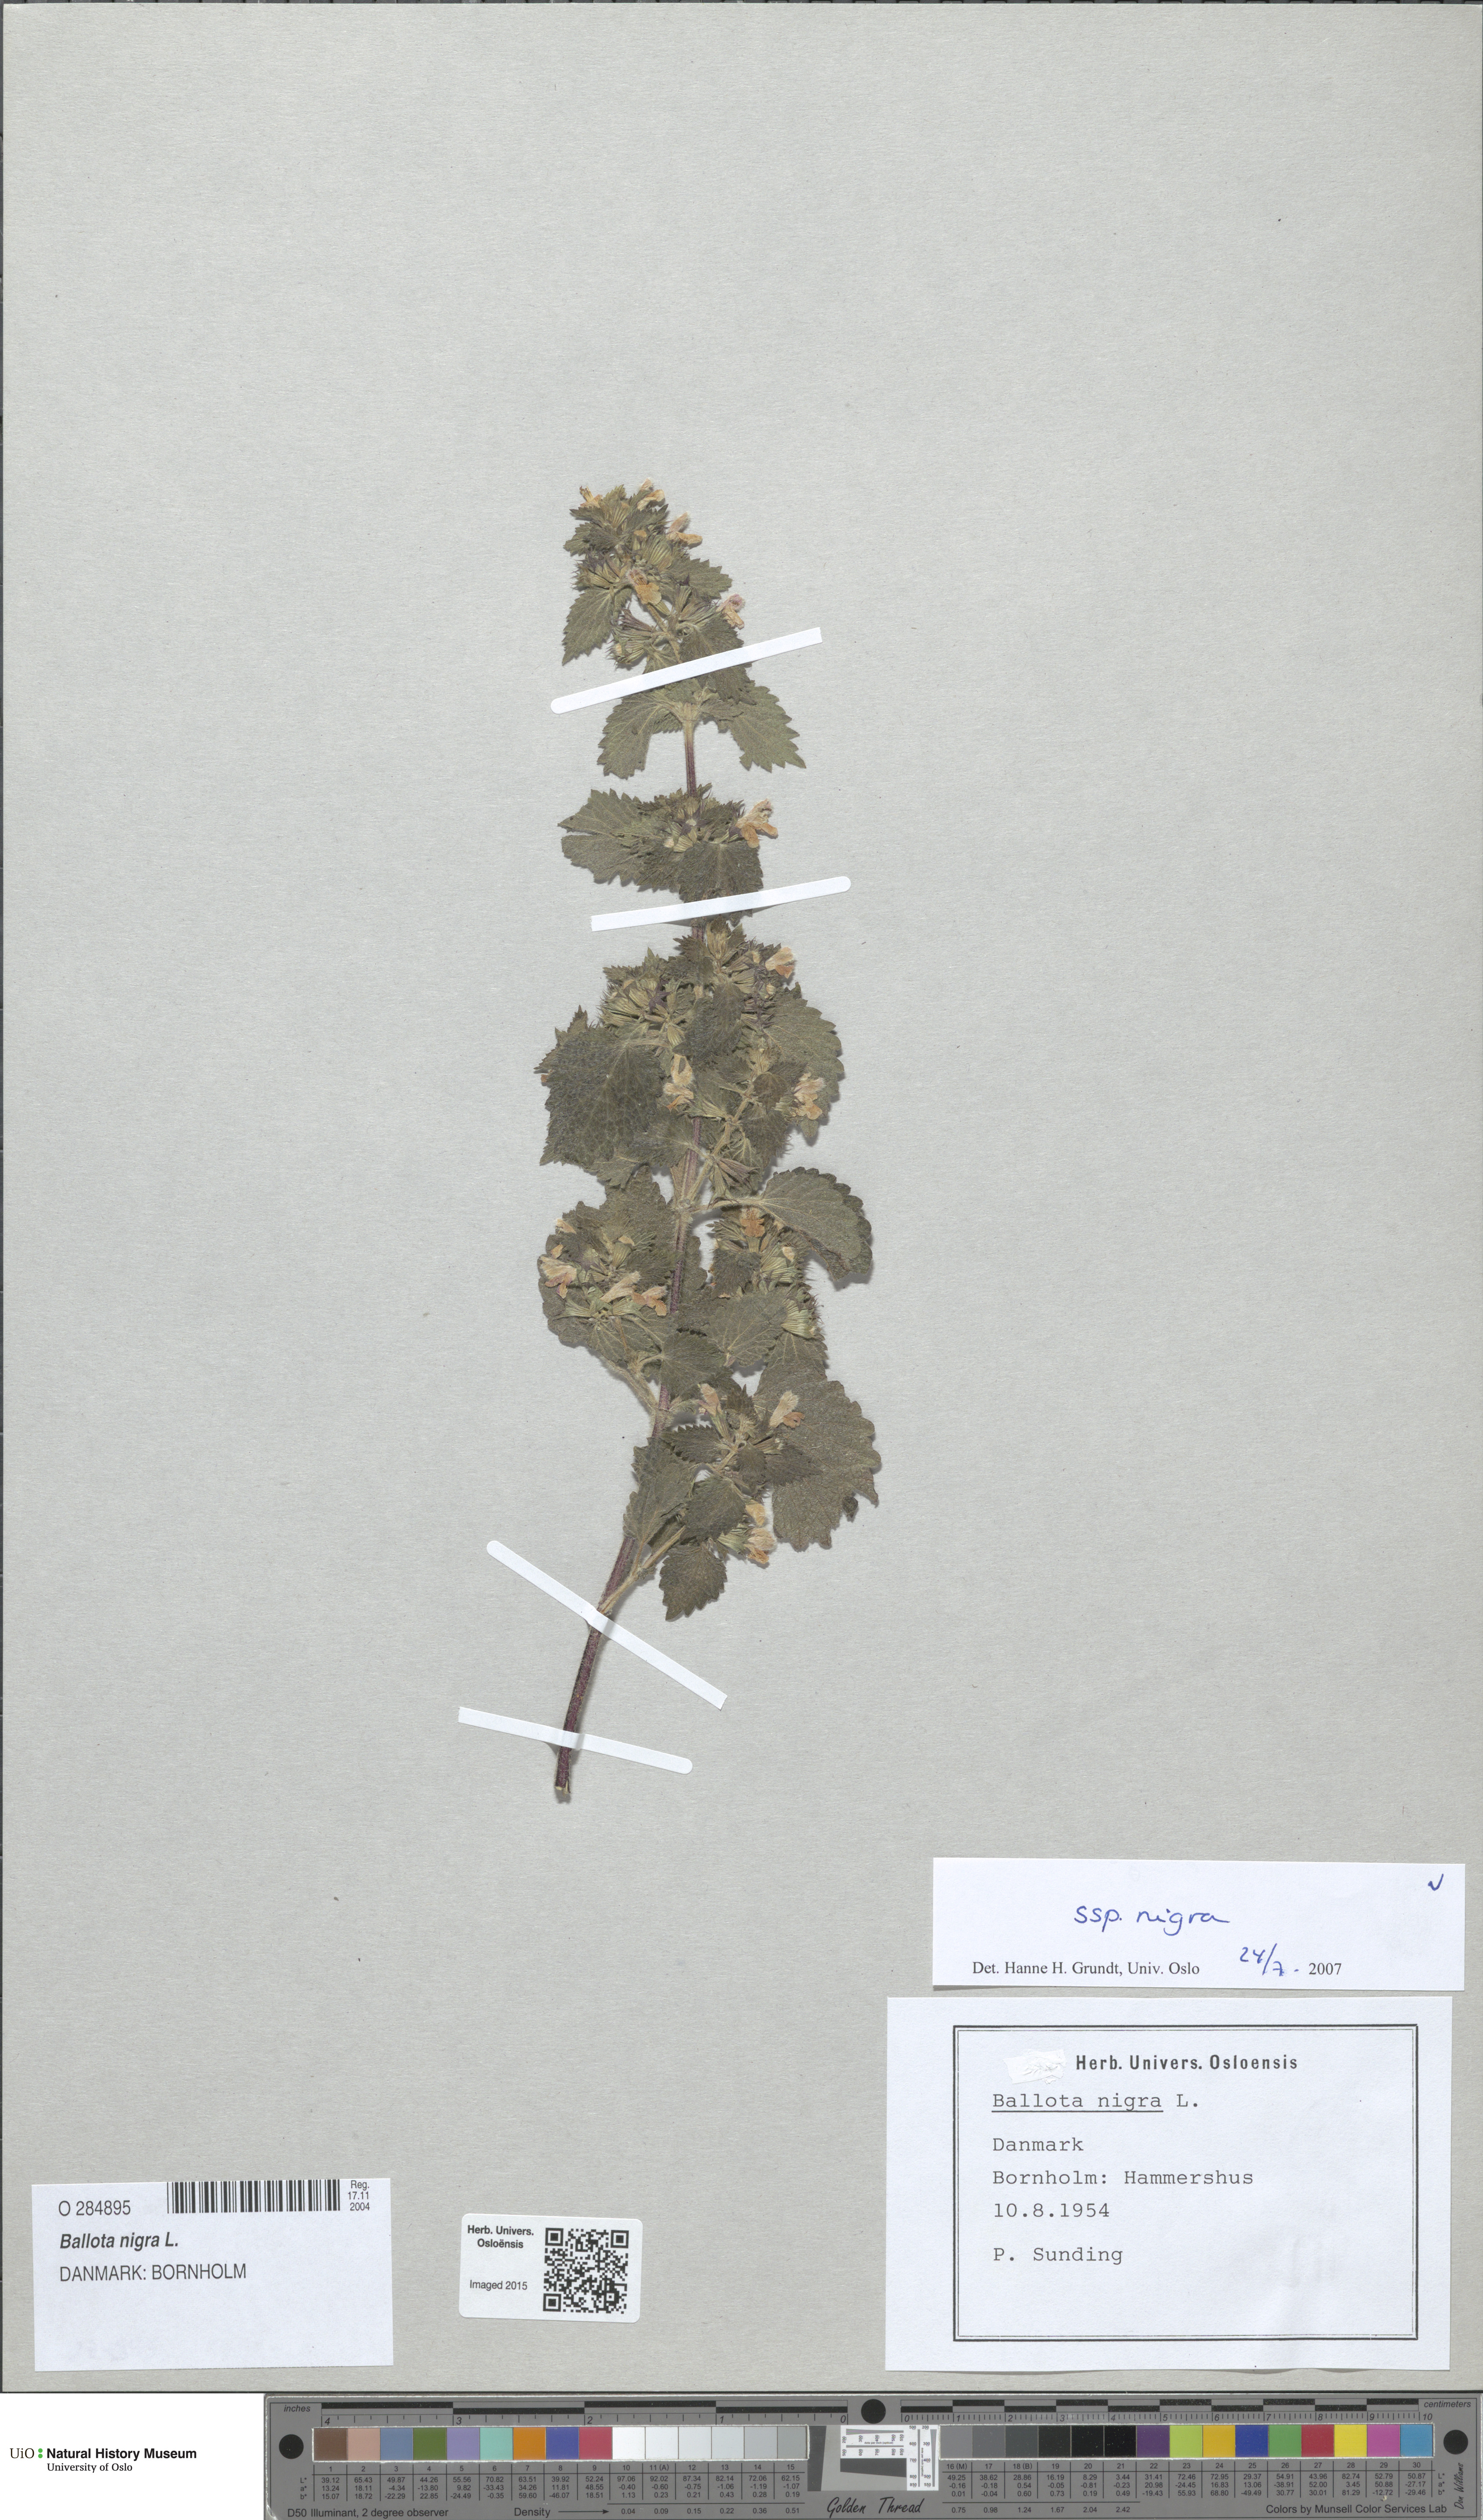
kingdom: Plantae
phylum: Tracheophyta
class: Magnoliopsida
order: Lamiales
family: Lamiaceae
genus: Ballota
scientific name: Ballota nigra
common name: Black horehound
